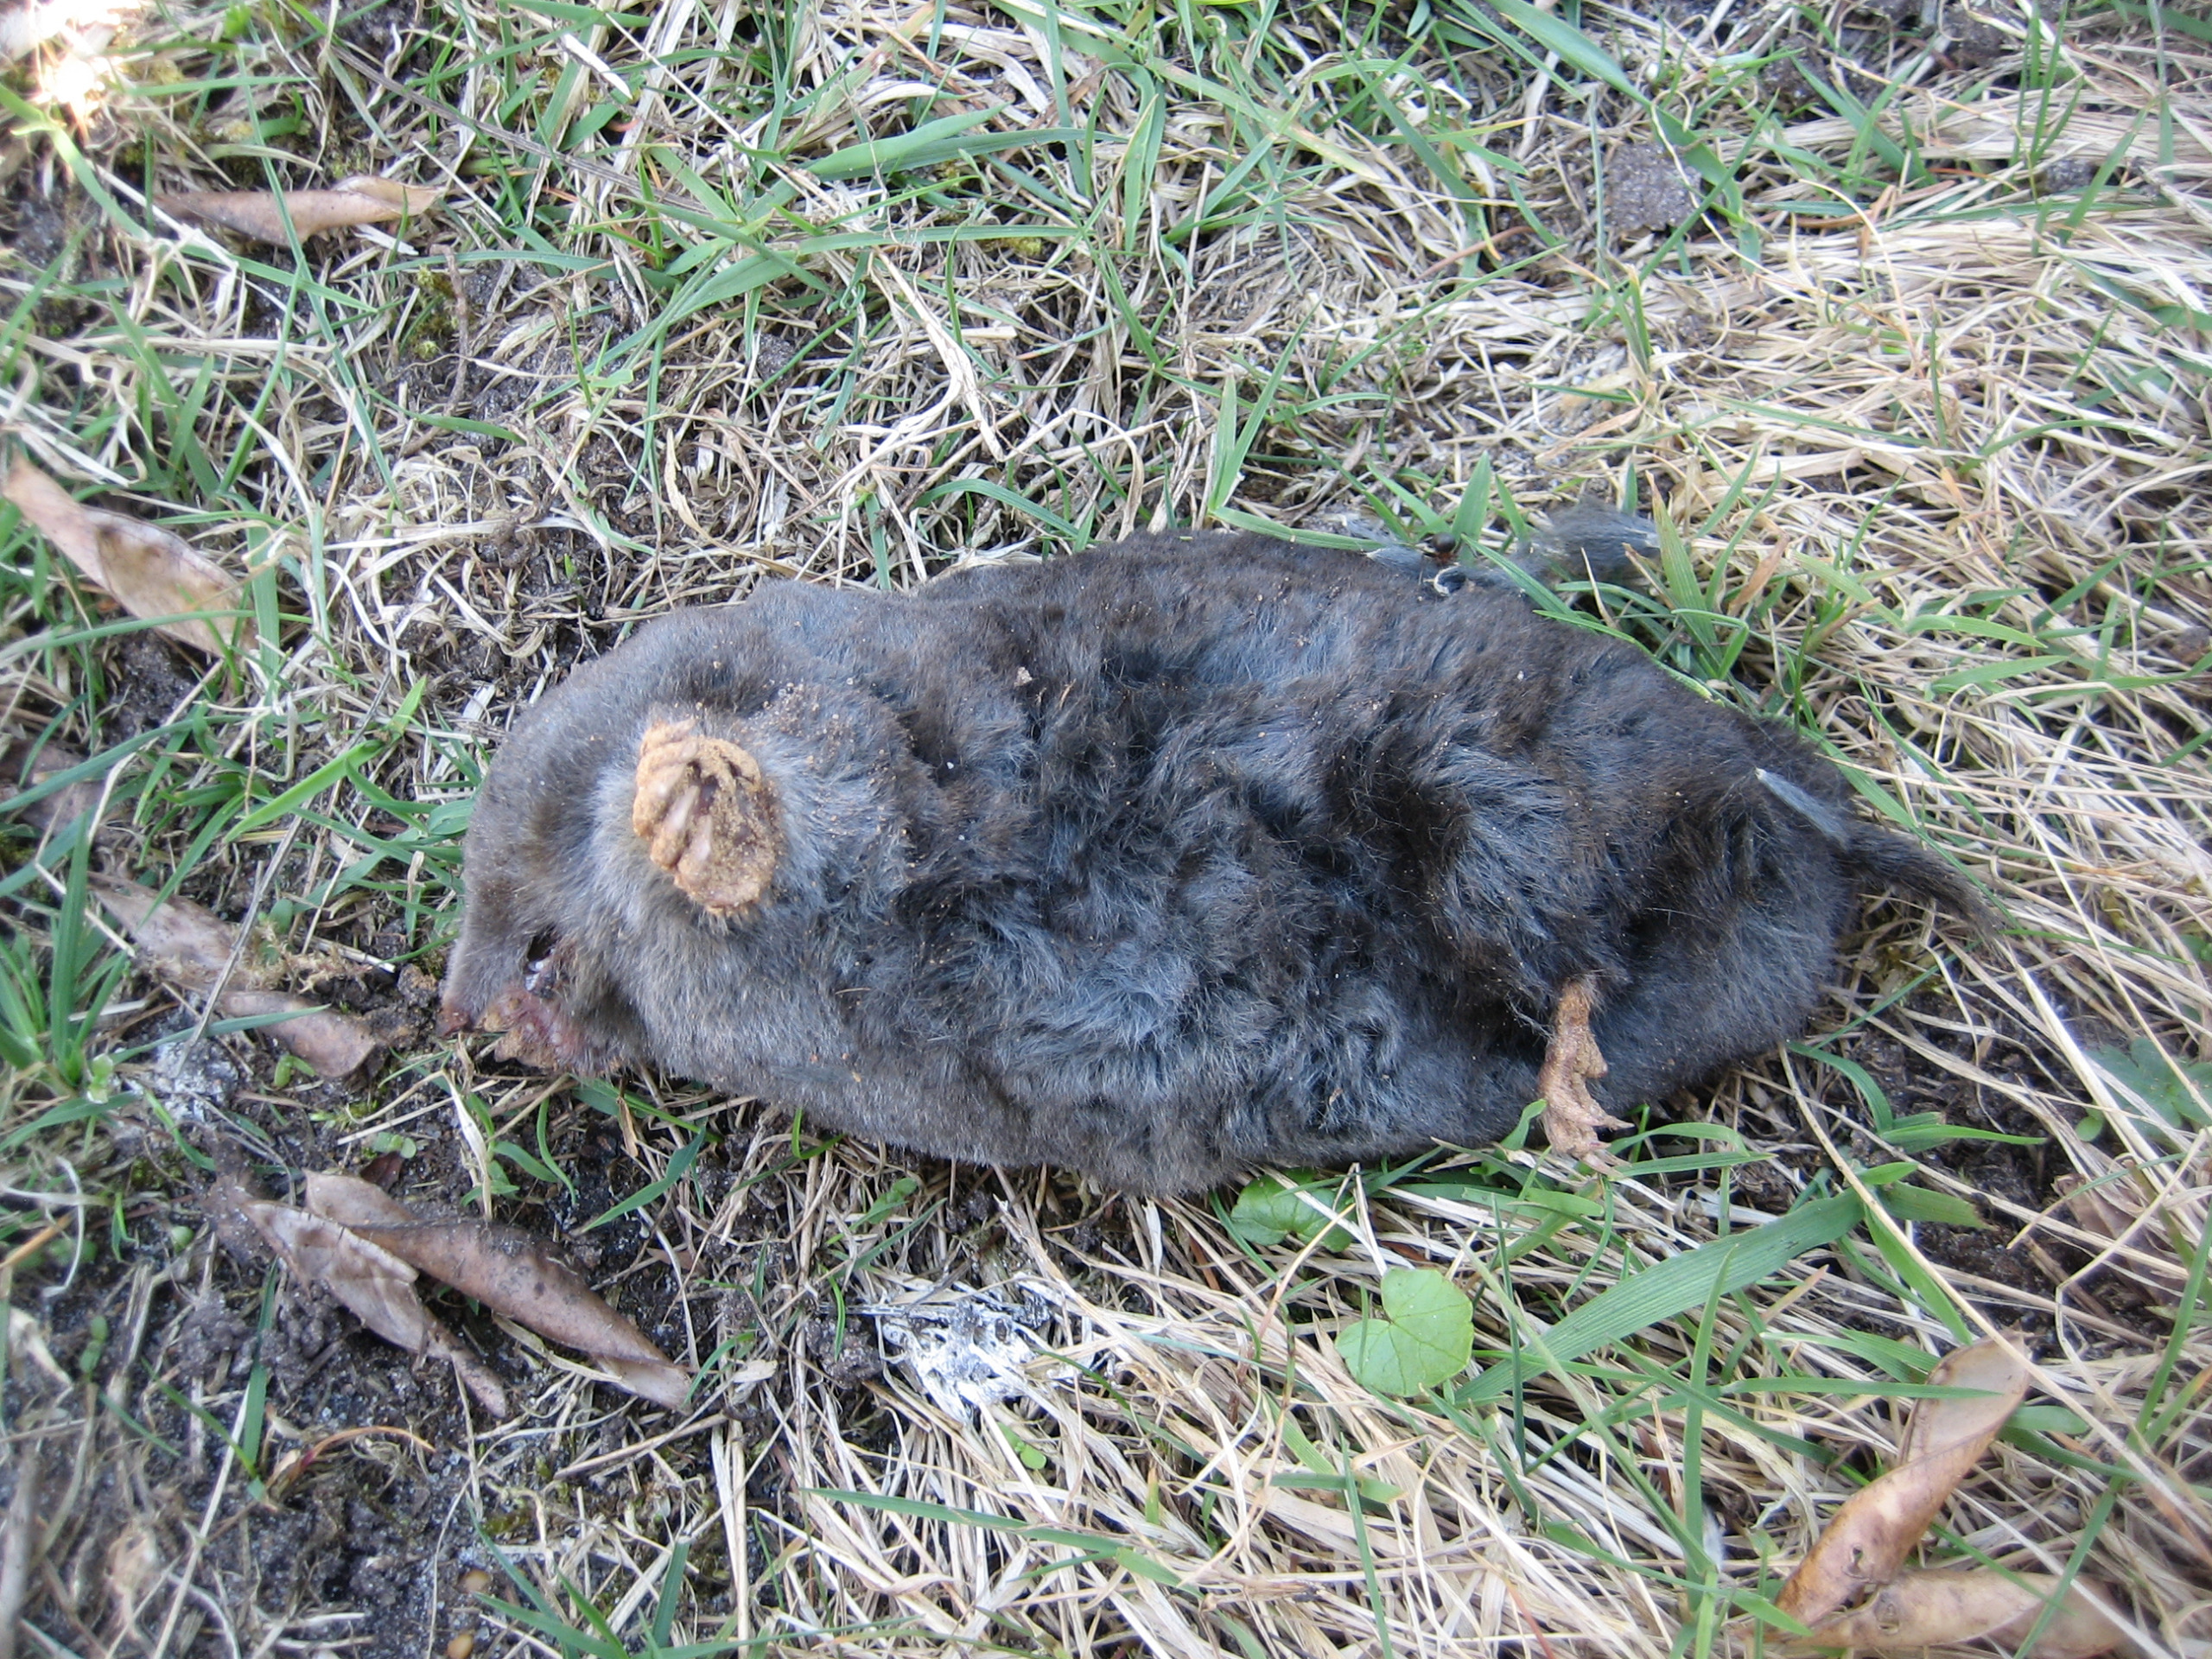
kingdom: Animalia
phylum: Chordata
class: Mammalia
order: Soricomorpha
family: Talpidae
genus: Talpa
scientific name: Talpa europaea
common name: Muldvarp
